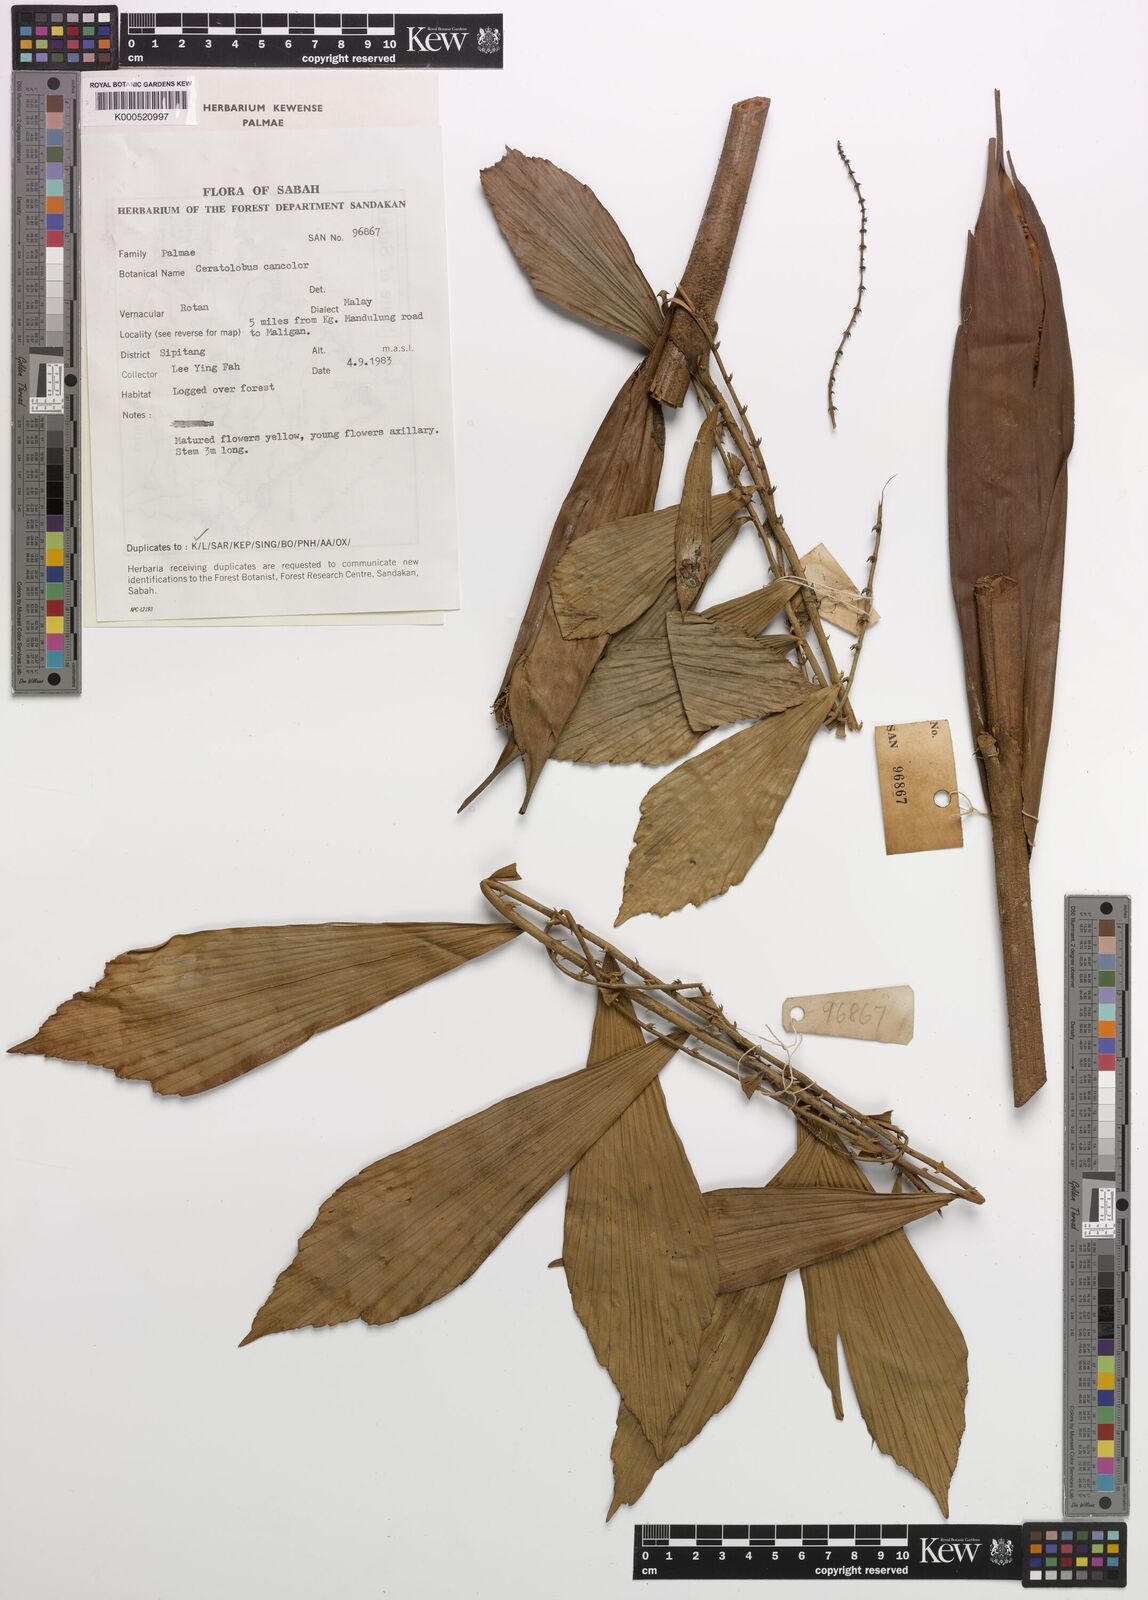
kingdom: Plantae
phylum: Tracheophyta
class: Liliopsida
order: Arecales
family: Arecaceae
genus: Calamus
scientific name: Calamus concolor
